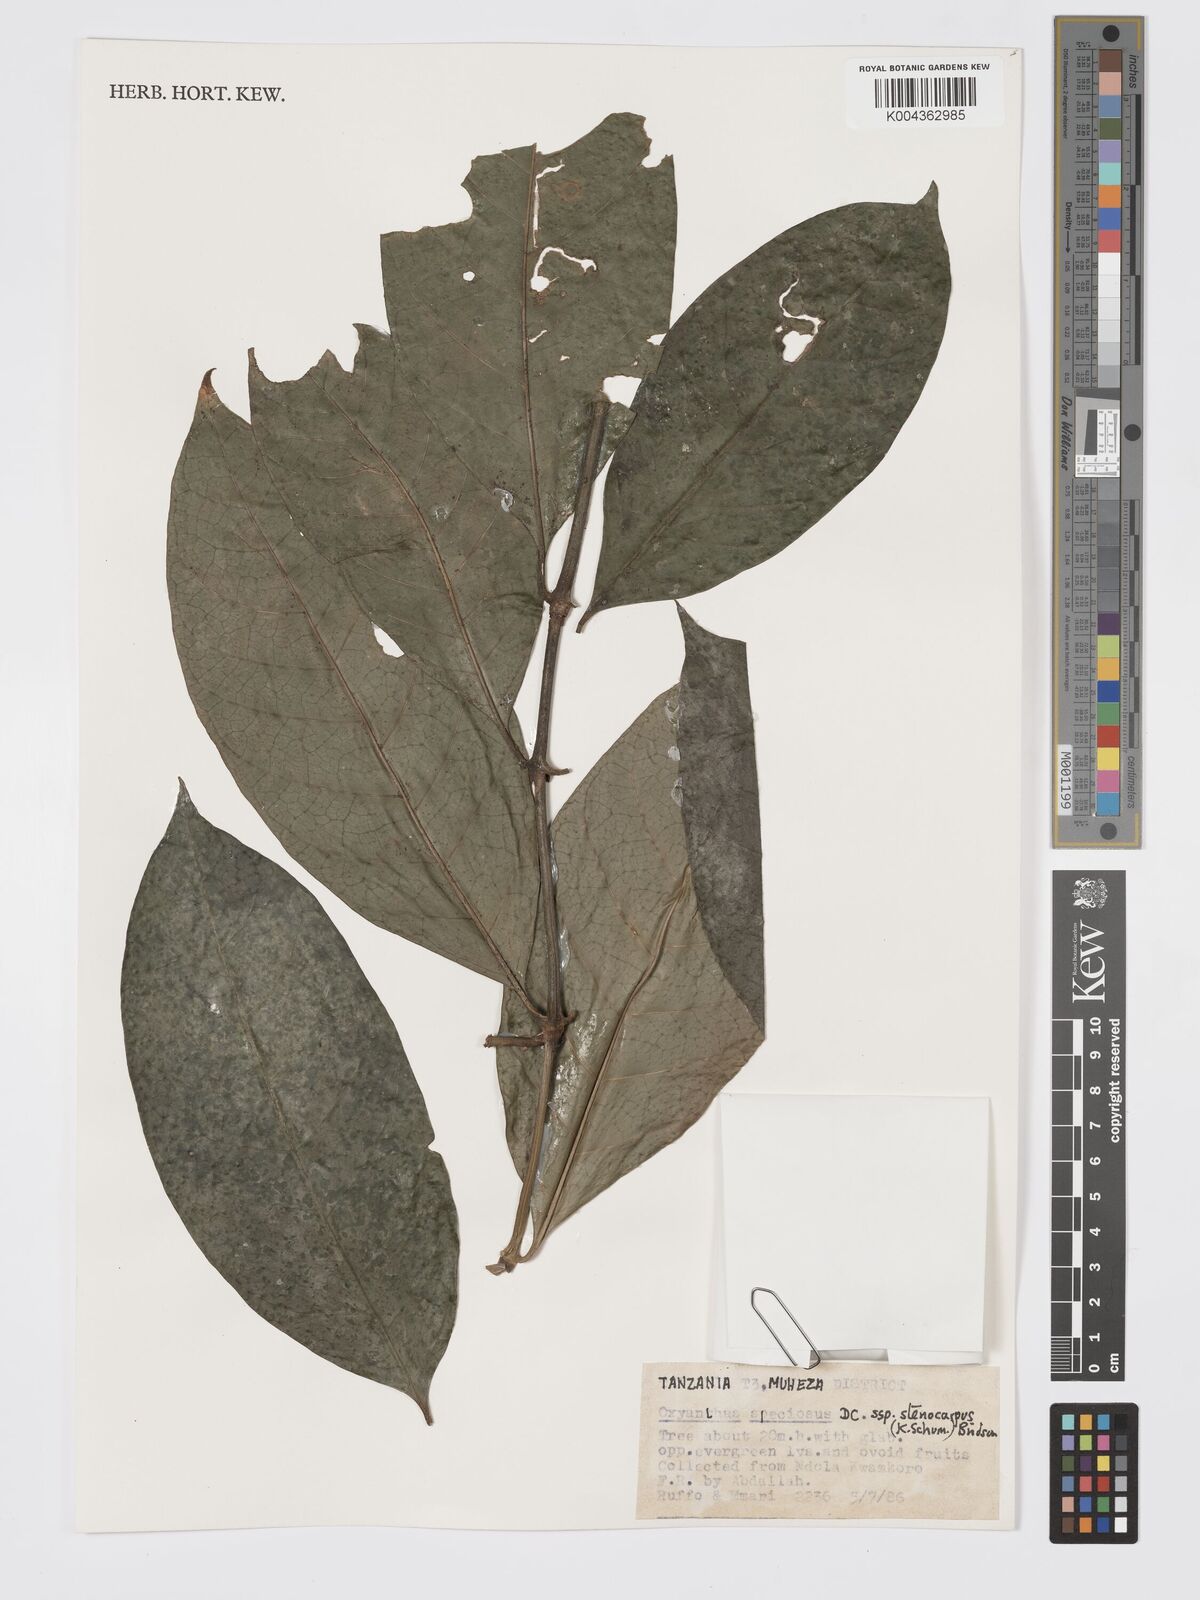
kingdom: Plantae
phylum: Tracheophyta
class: Magnoliopsida
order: Gentianales
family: Rubiaceae
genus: Oxyanthus
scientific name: Oxyanthus speciosus
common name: Whipstick loquat
